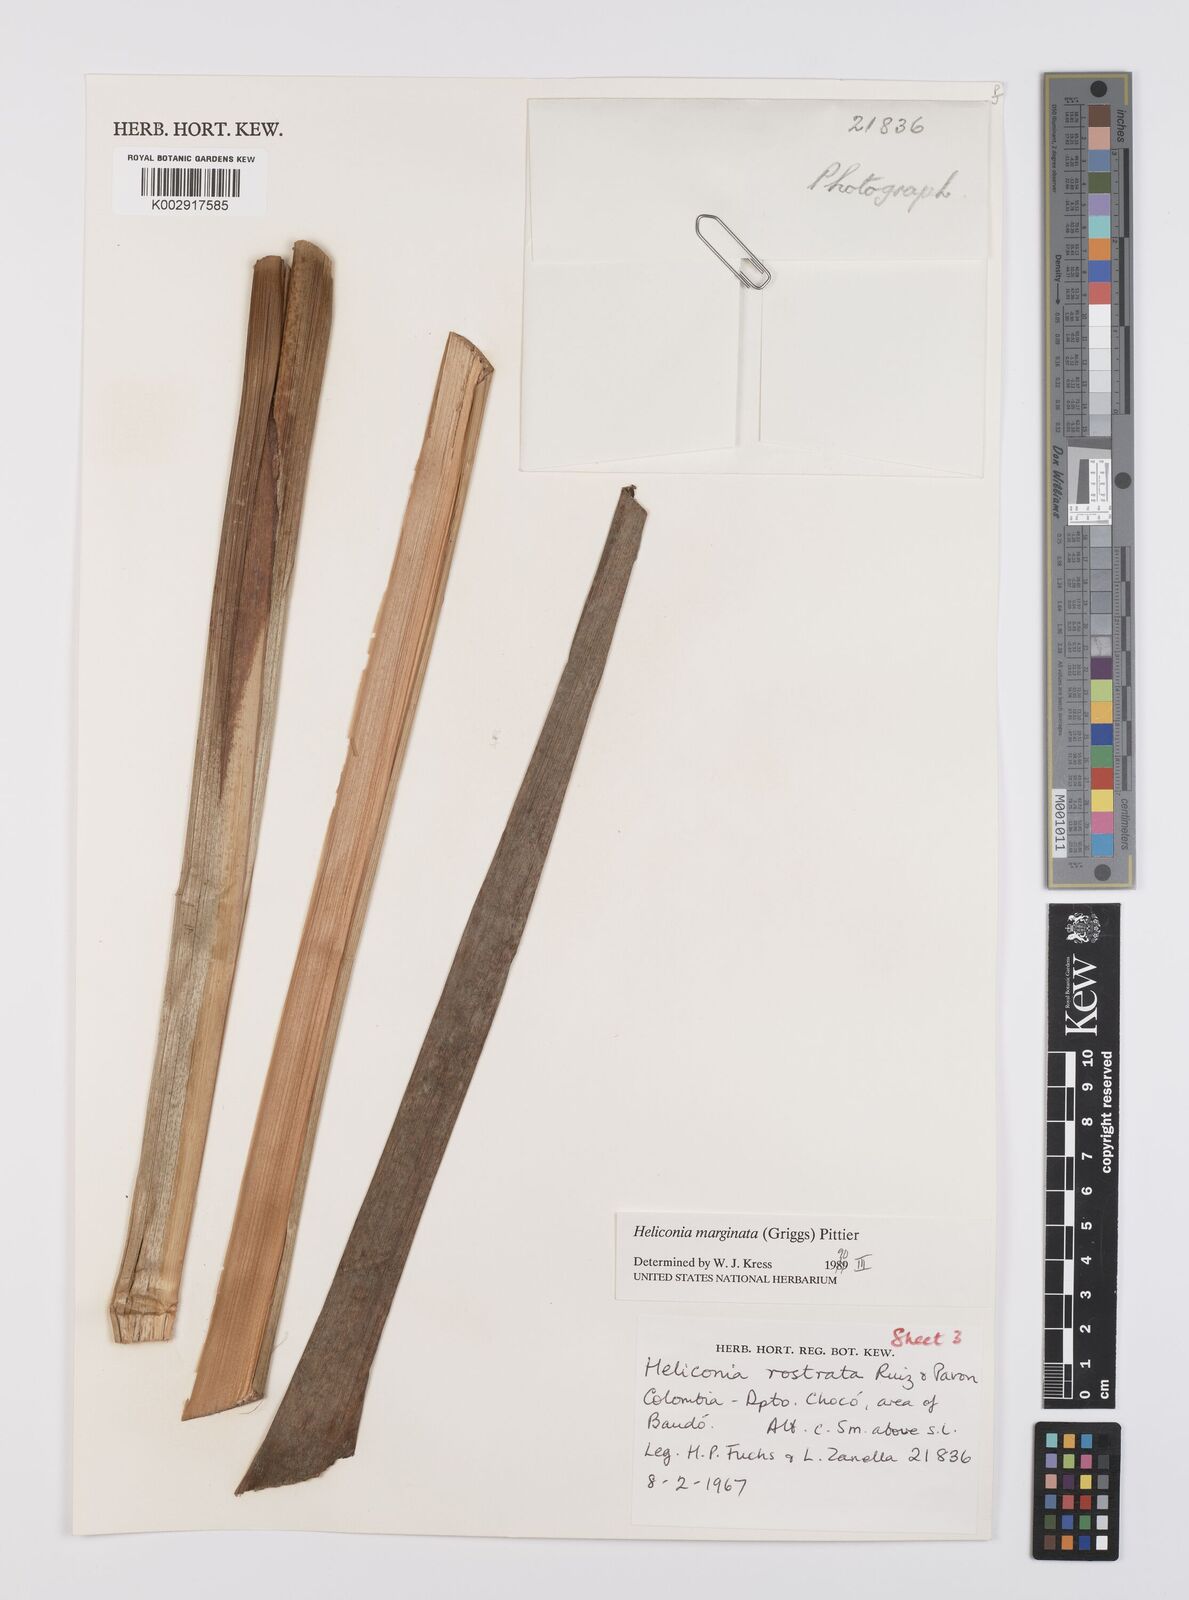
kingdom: Plantae
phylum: Tracheophyta
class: Liliopsida
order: Zingiberales
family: Heliconiaceae
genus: Heliconia
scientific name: Heliconia marginata
